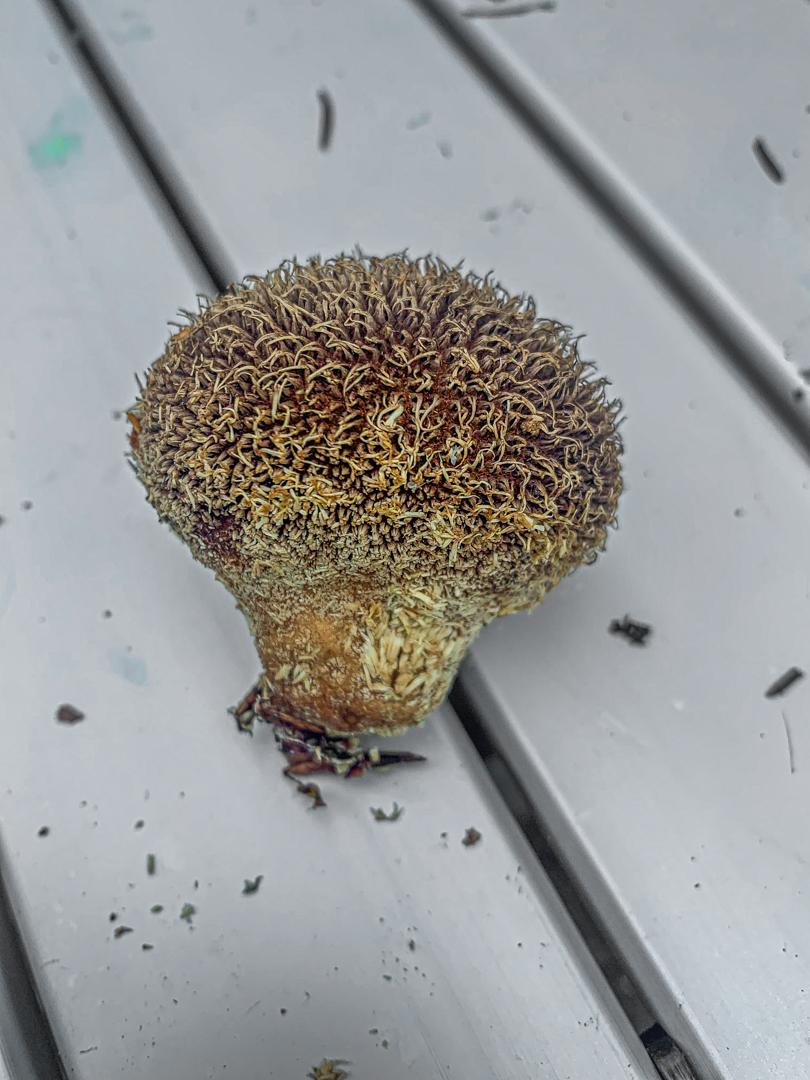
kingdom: Fungi
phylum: Basidiomycota
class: Agaricomycetes
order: Agaricales
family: Lycoperdaceae
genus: Lycoperdon
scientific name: Lycoperdon echinatum
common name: pindsvine-støvbold
